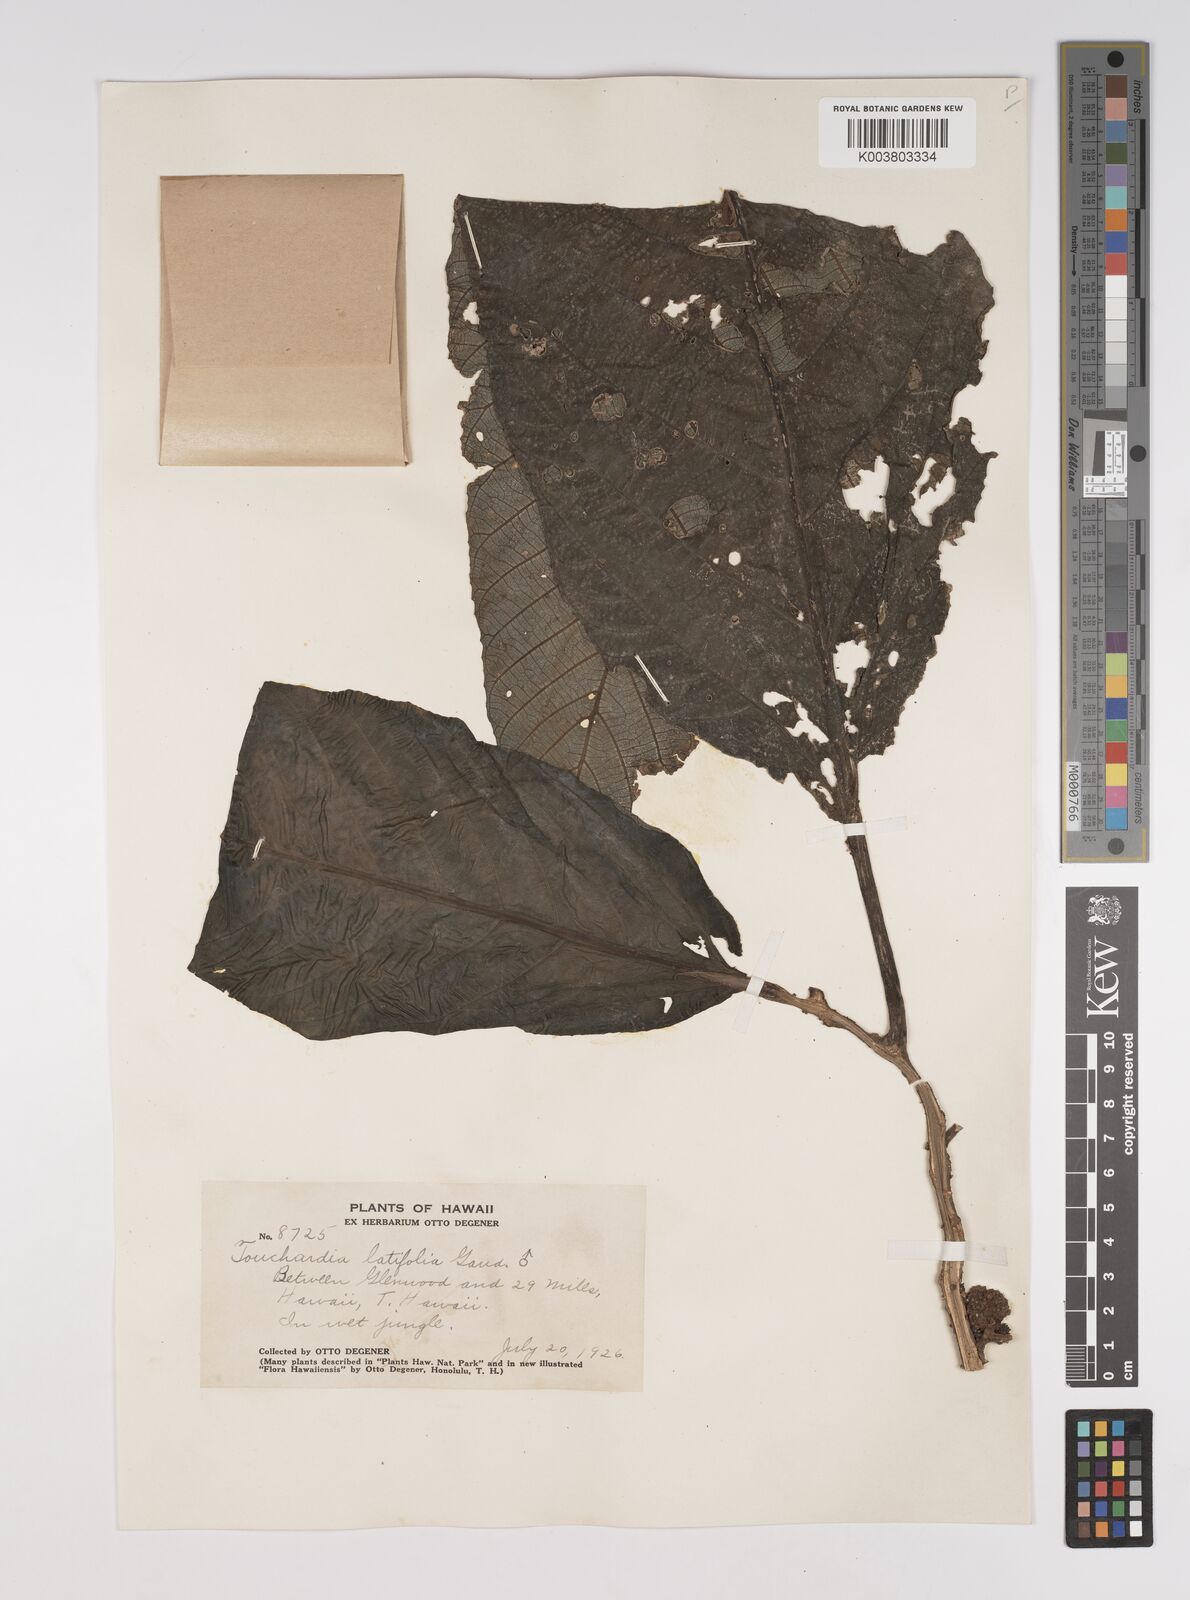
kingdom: Plantae
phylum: Tracheophyta
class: Magnoliopsida
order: Rosales
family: Urticaceae
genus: Touchardia
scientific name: Touchardia latifolia
